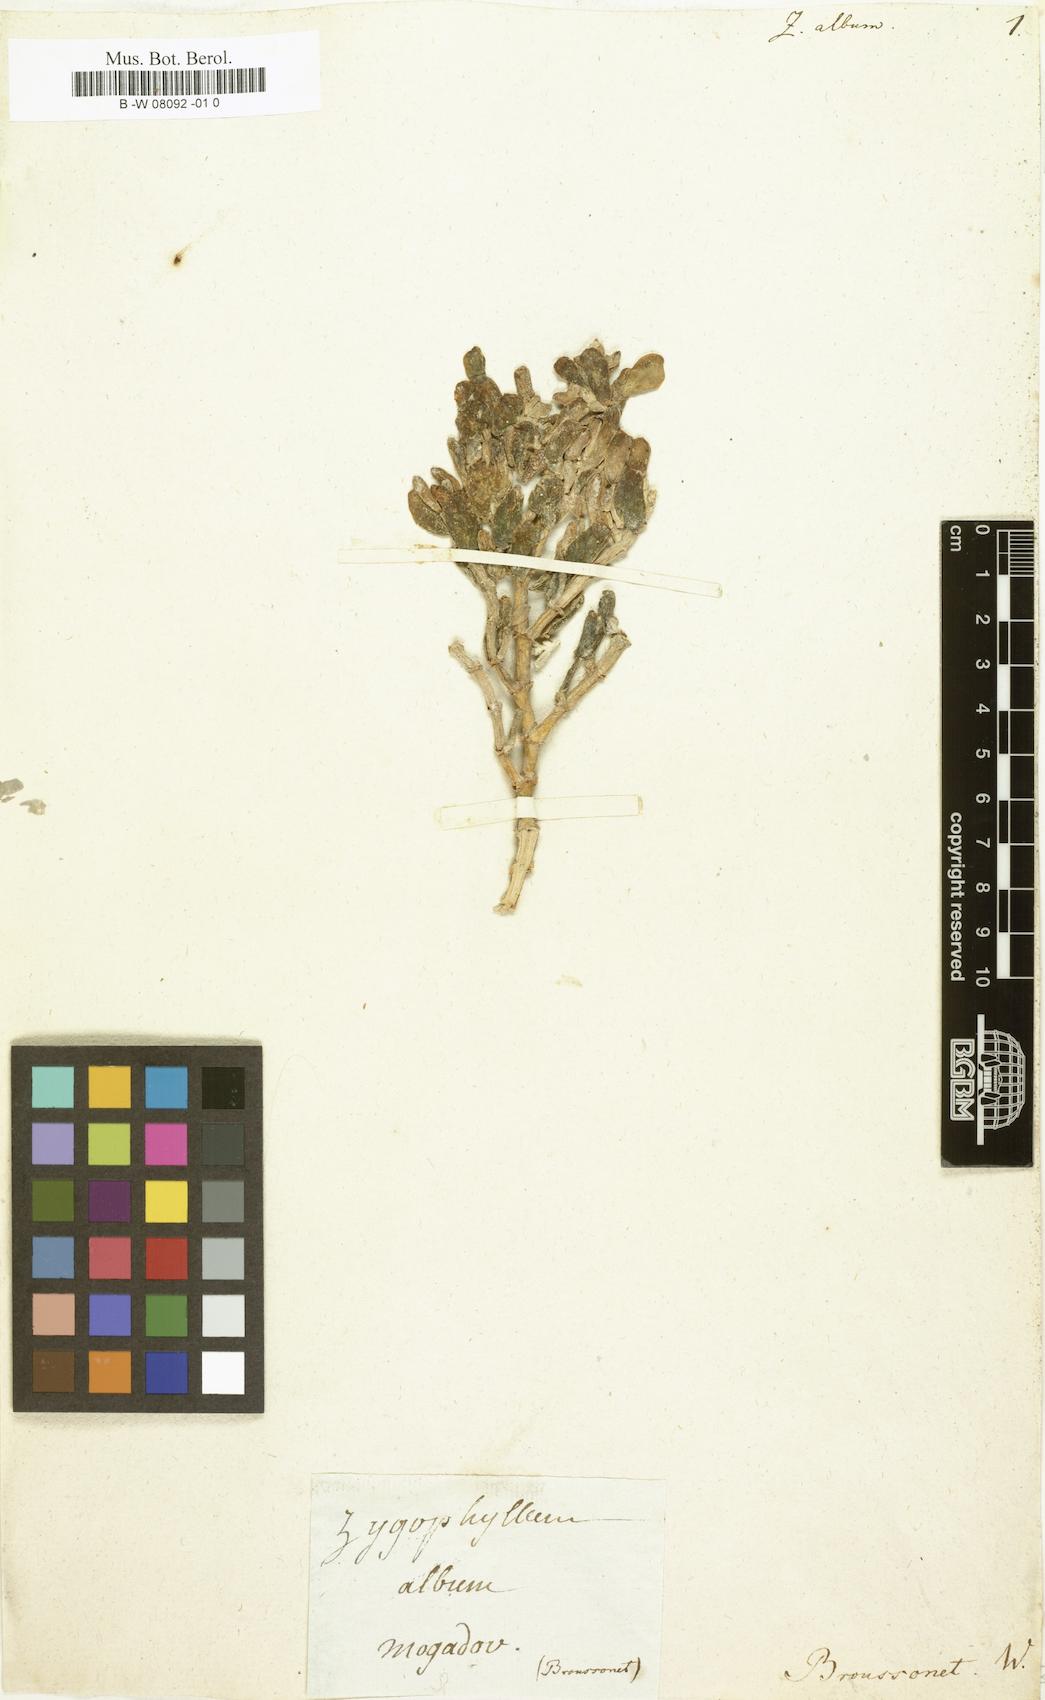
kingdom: Plantae
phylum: Tracheophyta
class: Magnoliopsida
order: Zygophyllales
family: Zygophyllaceae
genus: Tetraena
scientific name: Tetraena alba
